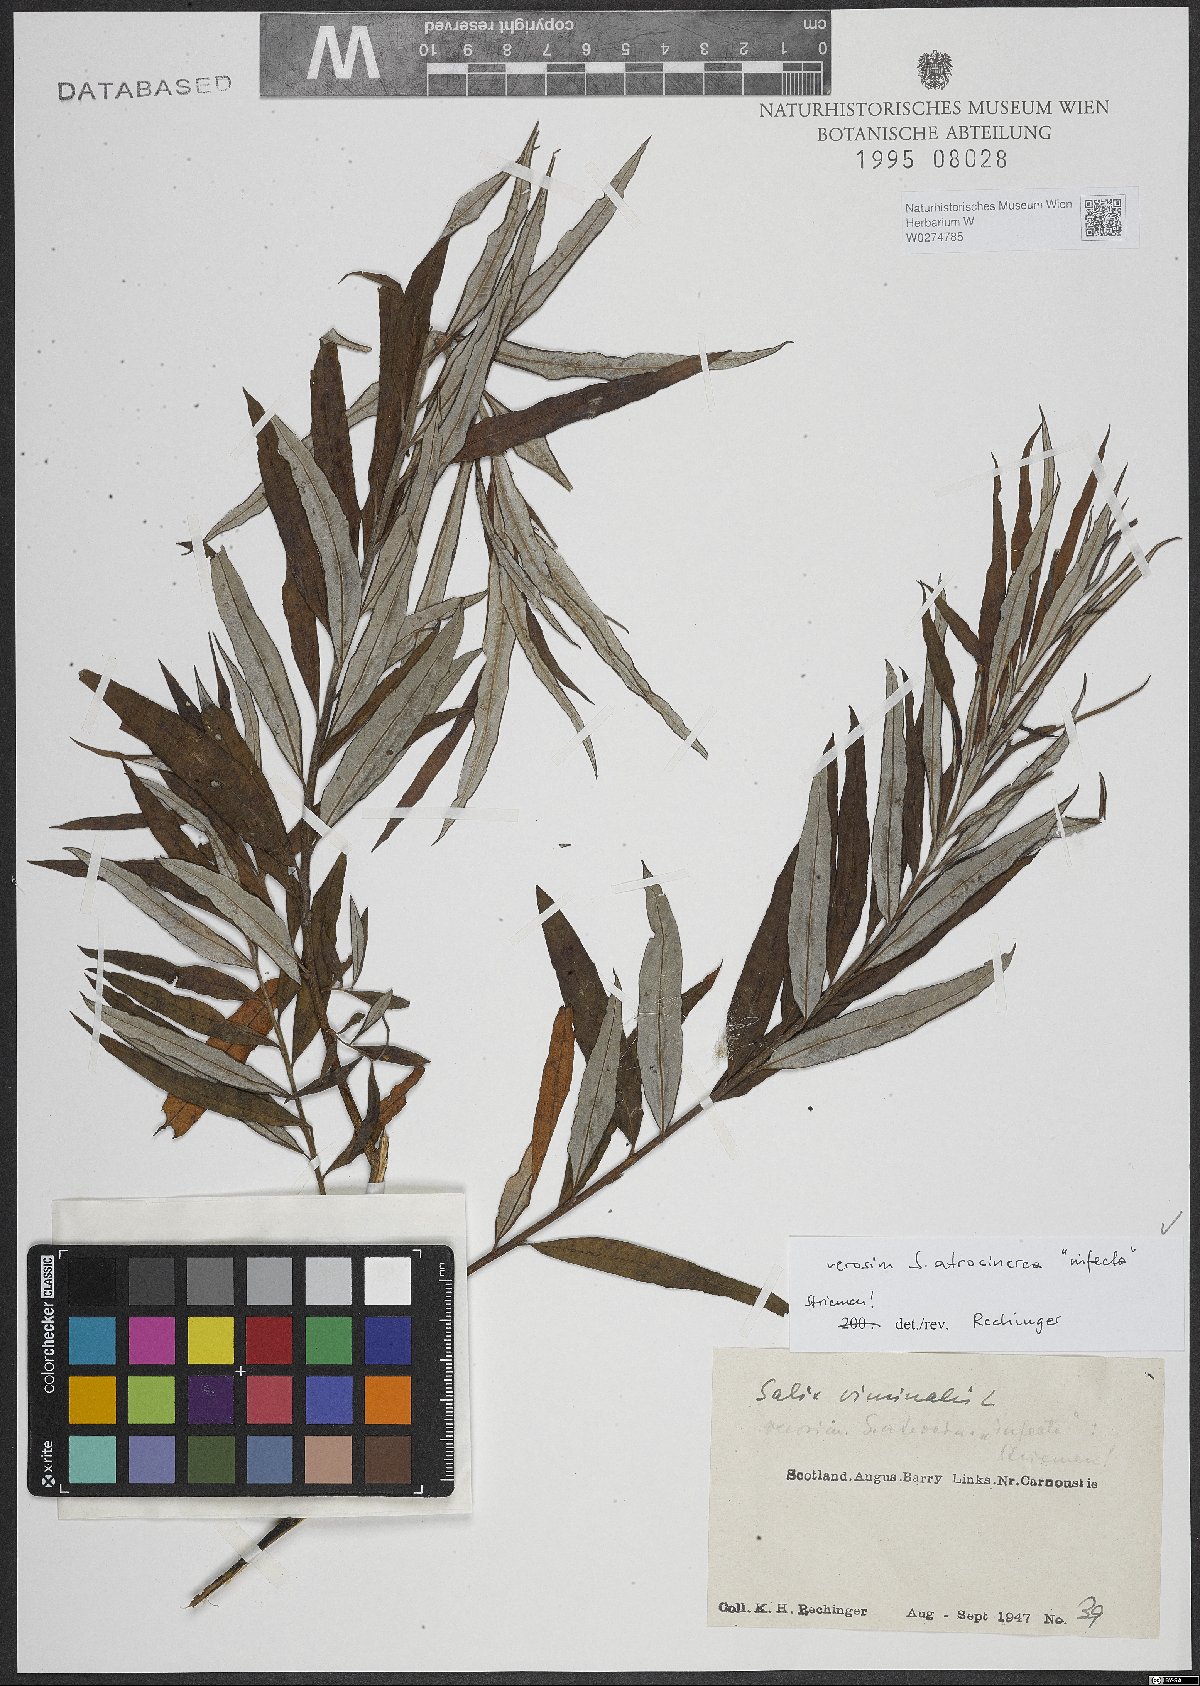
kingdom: Plantae
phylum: Tracheophyta
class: Magnoliopsida
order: Malpighiales
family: Salicaceae
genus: Salix
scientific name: Salix atrocinerea
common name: Rusty willow
